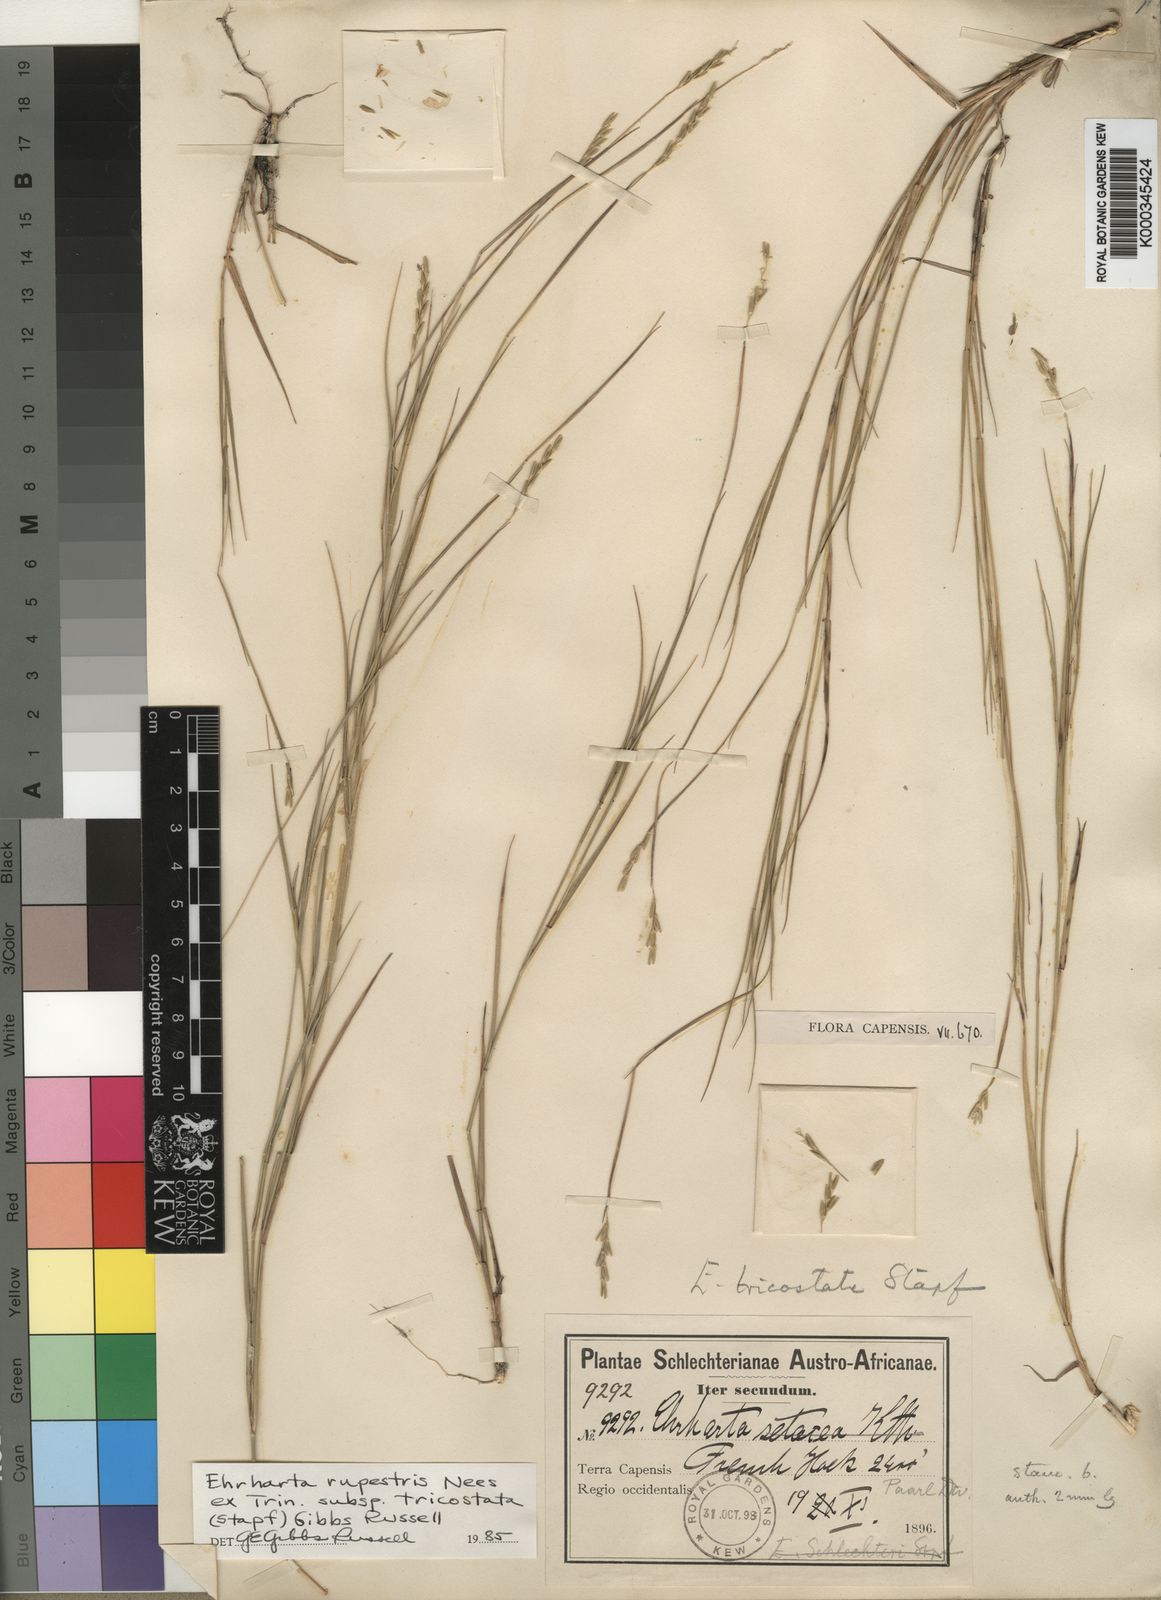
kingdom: Plantae
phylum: Tracheophyta
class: Liliopsida
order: Poales
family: Poaceae
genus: Ehrharta
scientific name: Ehrharta rupestris
